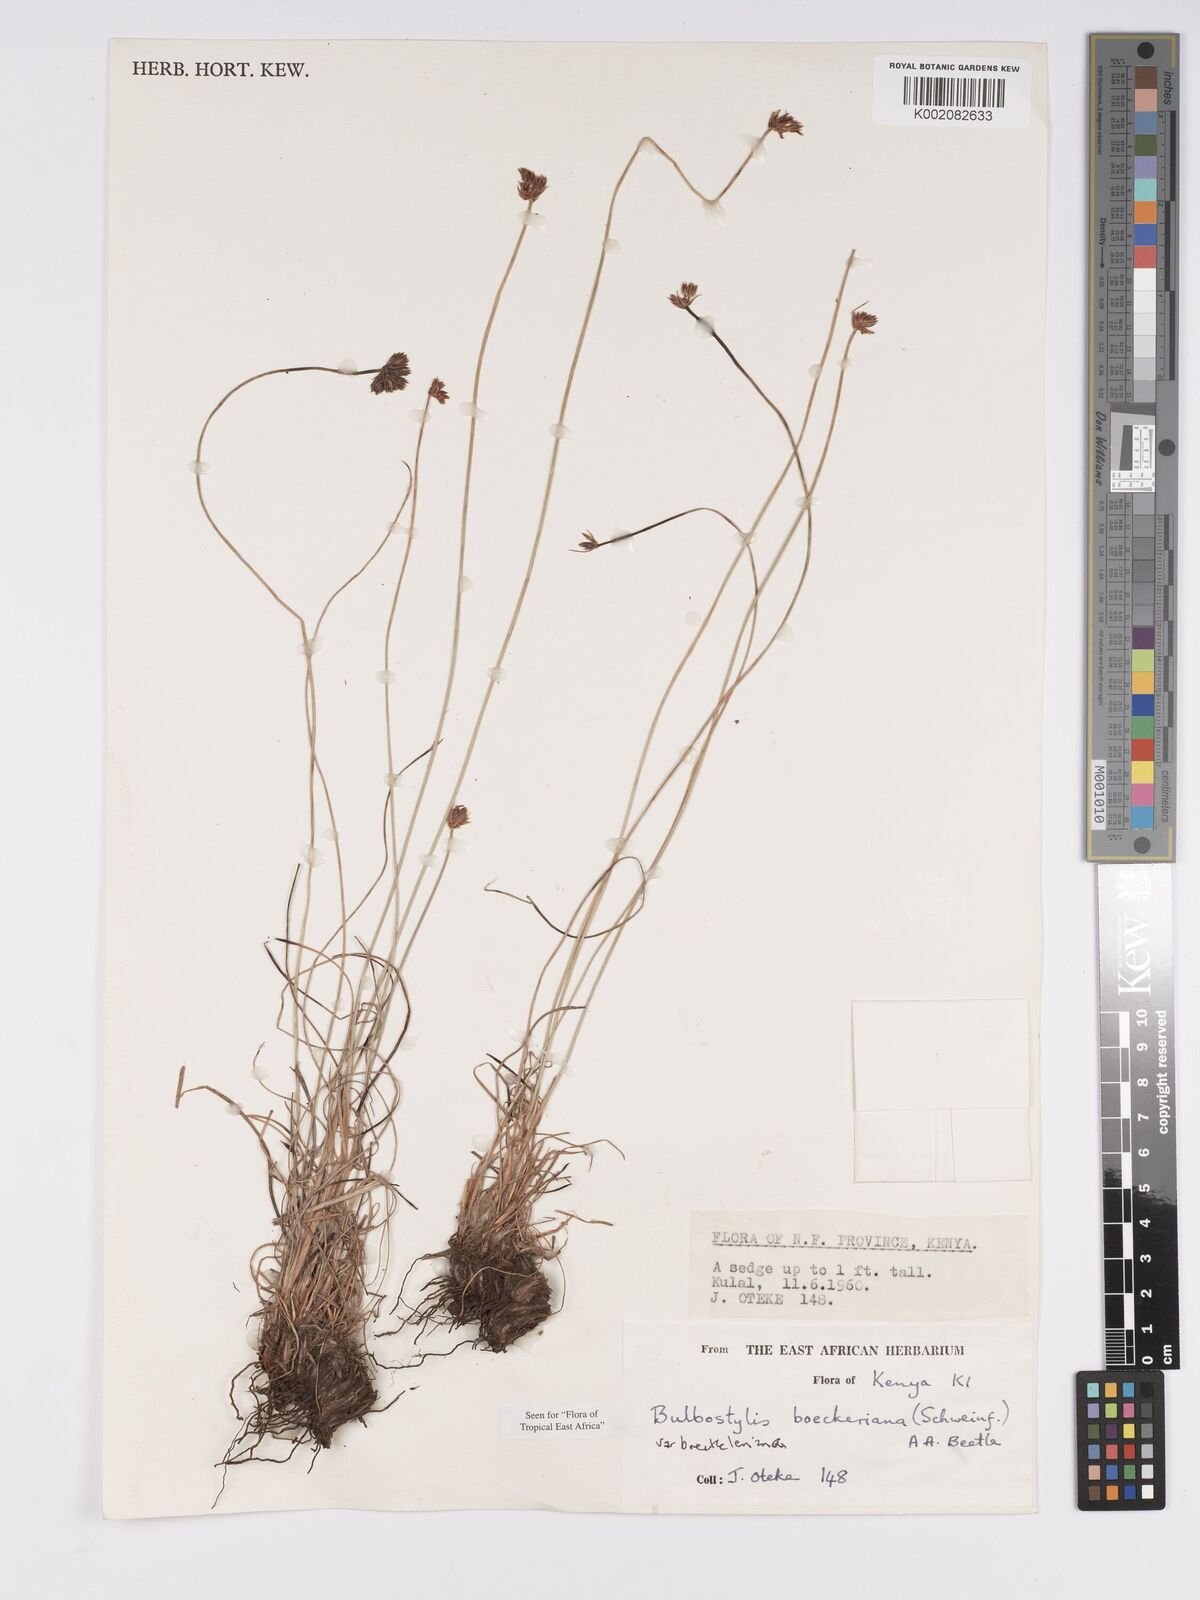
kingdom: Plantae
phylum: Tracheophyta
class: Liliopsida
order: Poales
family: Cyperaceae
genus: Bulbostylis
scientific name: Bulbostylis boeckeleriana
